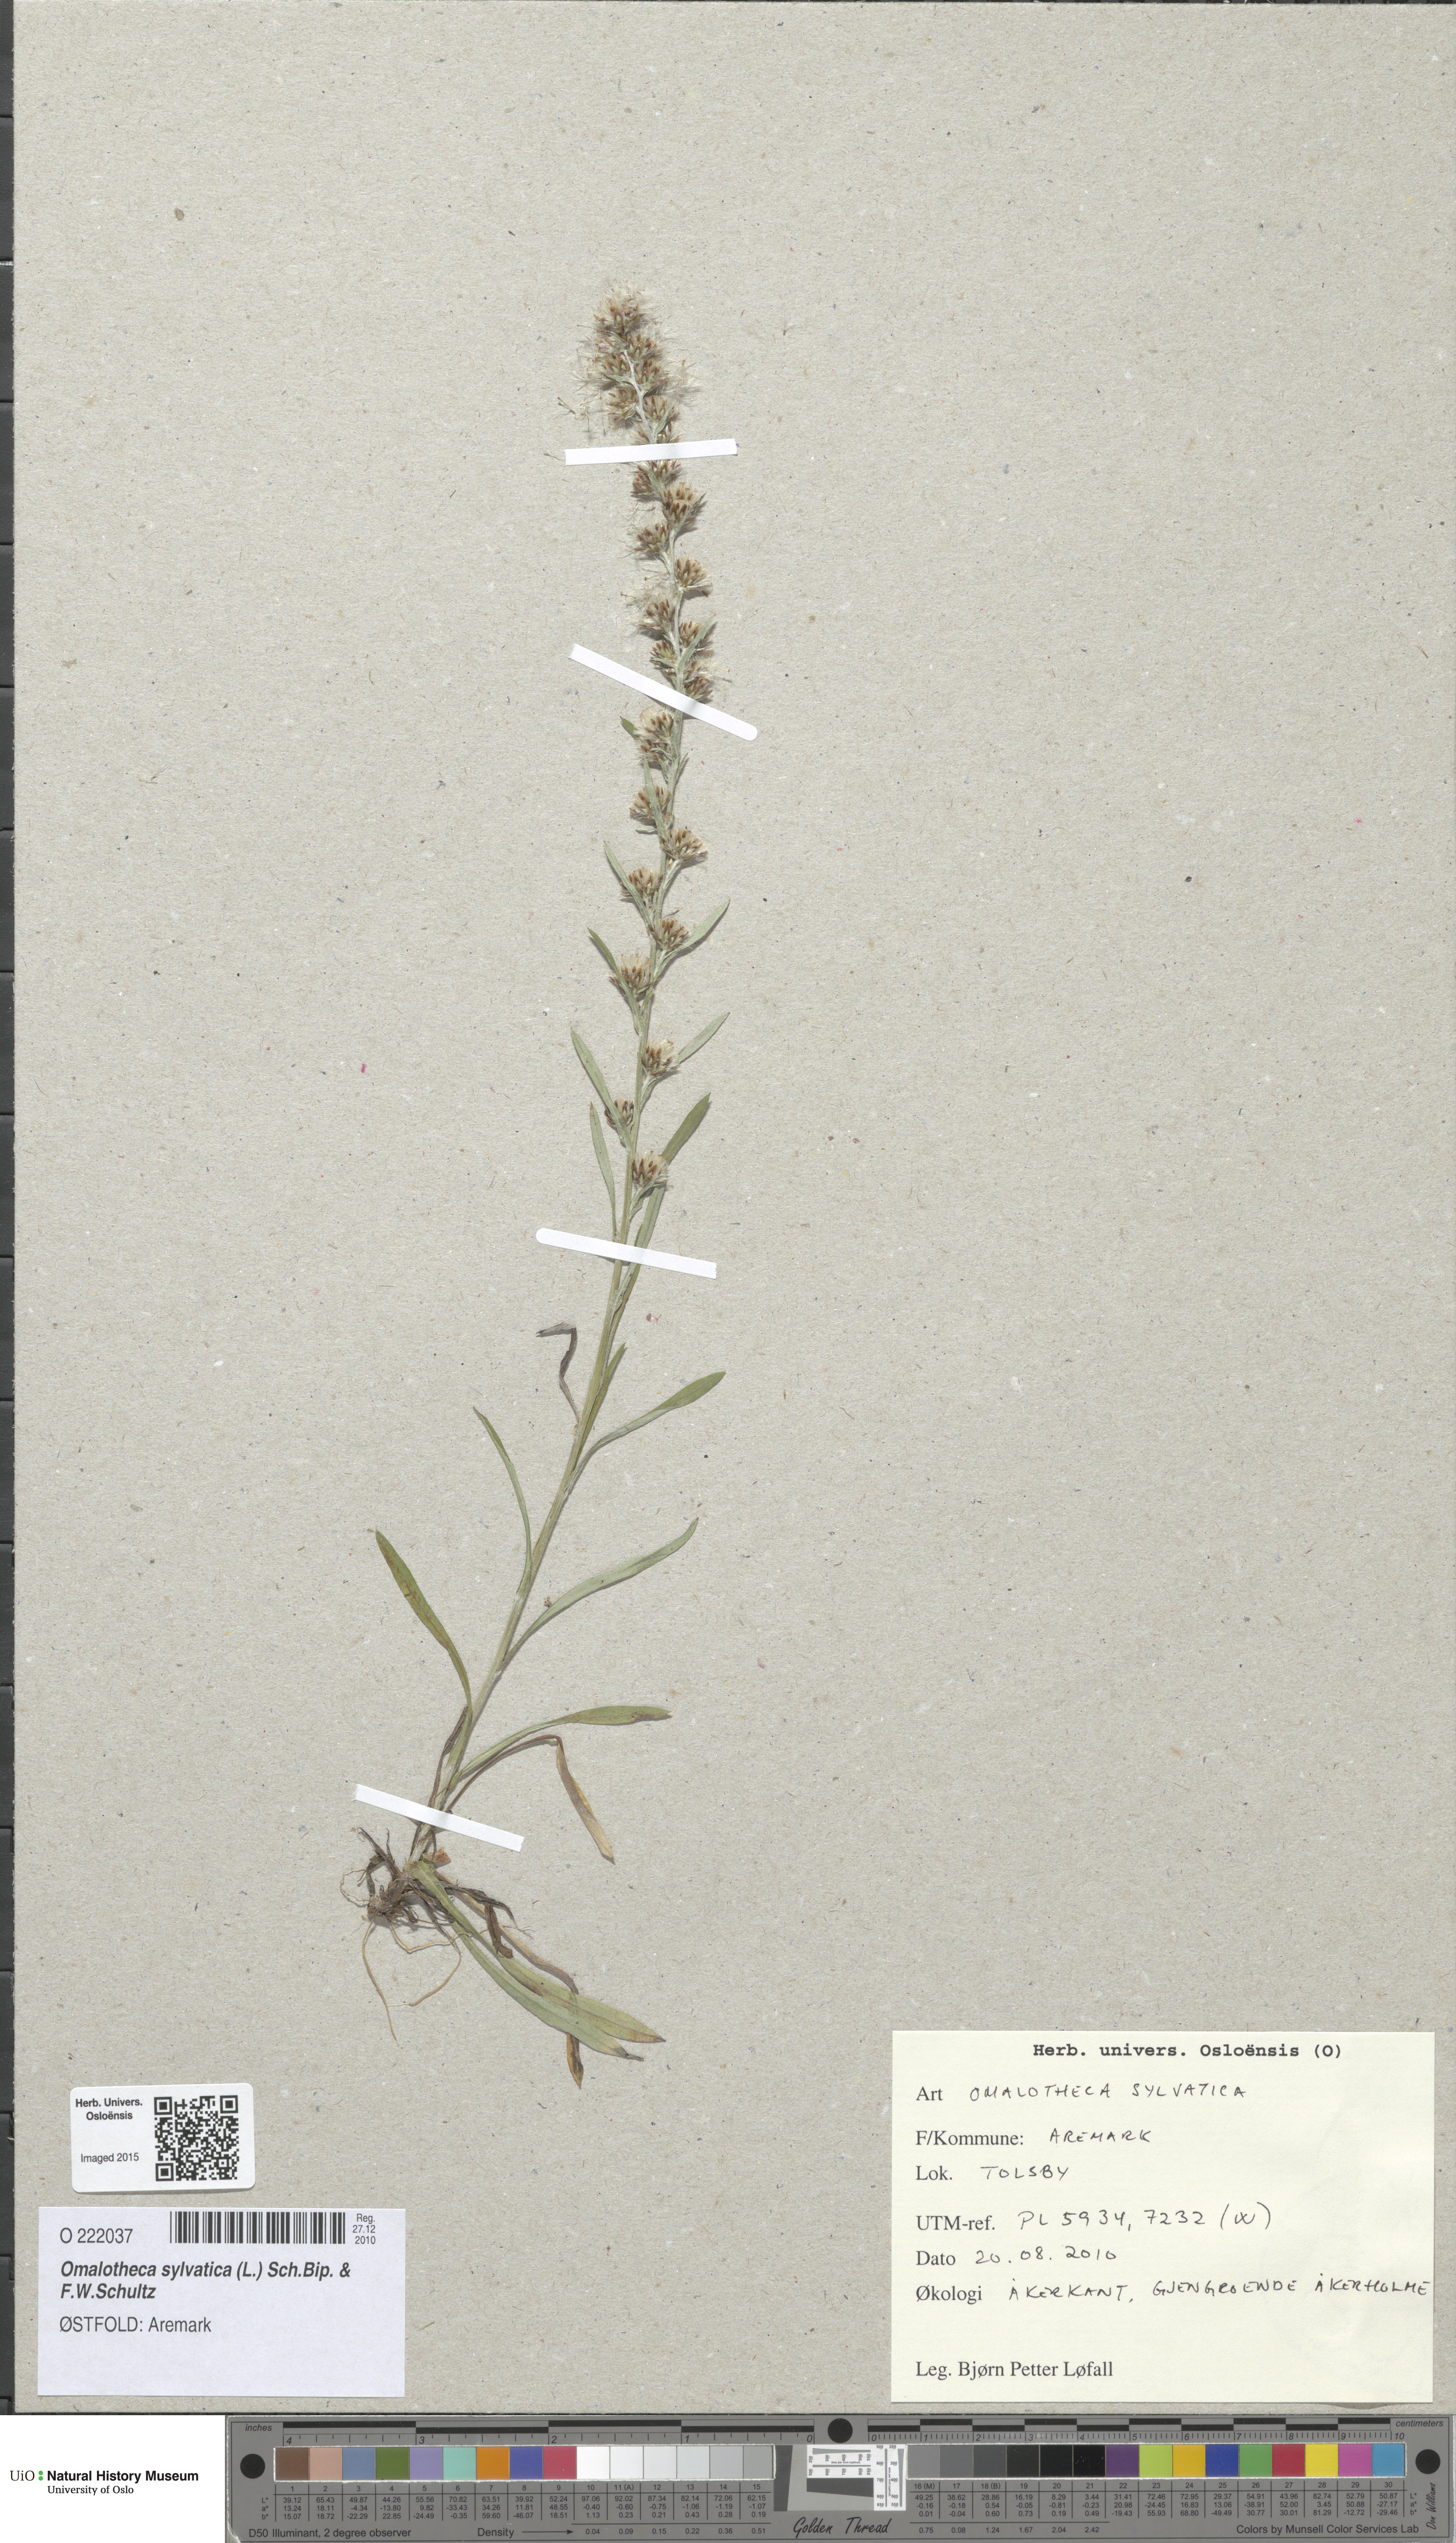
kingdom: Plantae
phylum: Tracheophyta
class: Magnoliopsida
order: Asterales
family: Asteraceae
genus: Omalotheca
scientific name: Omalotheca sylvatica
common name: Heath cudweed
